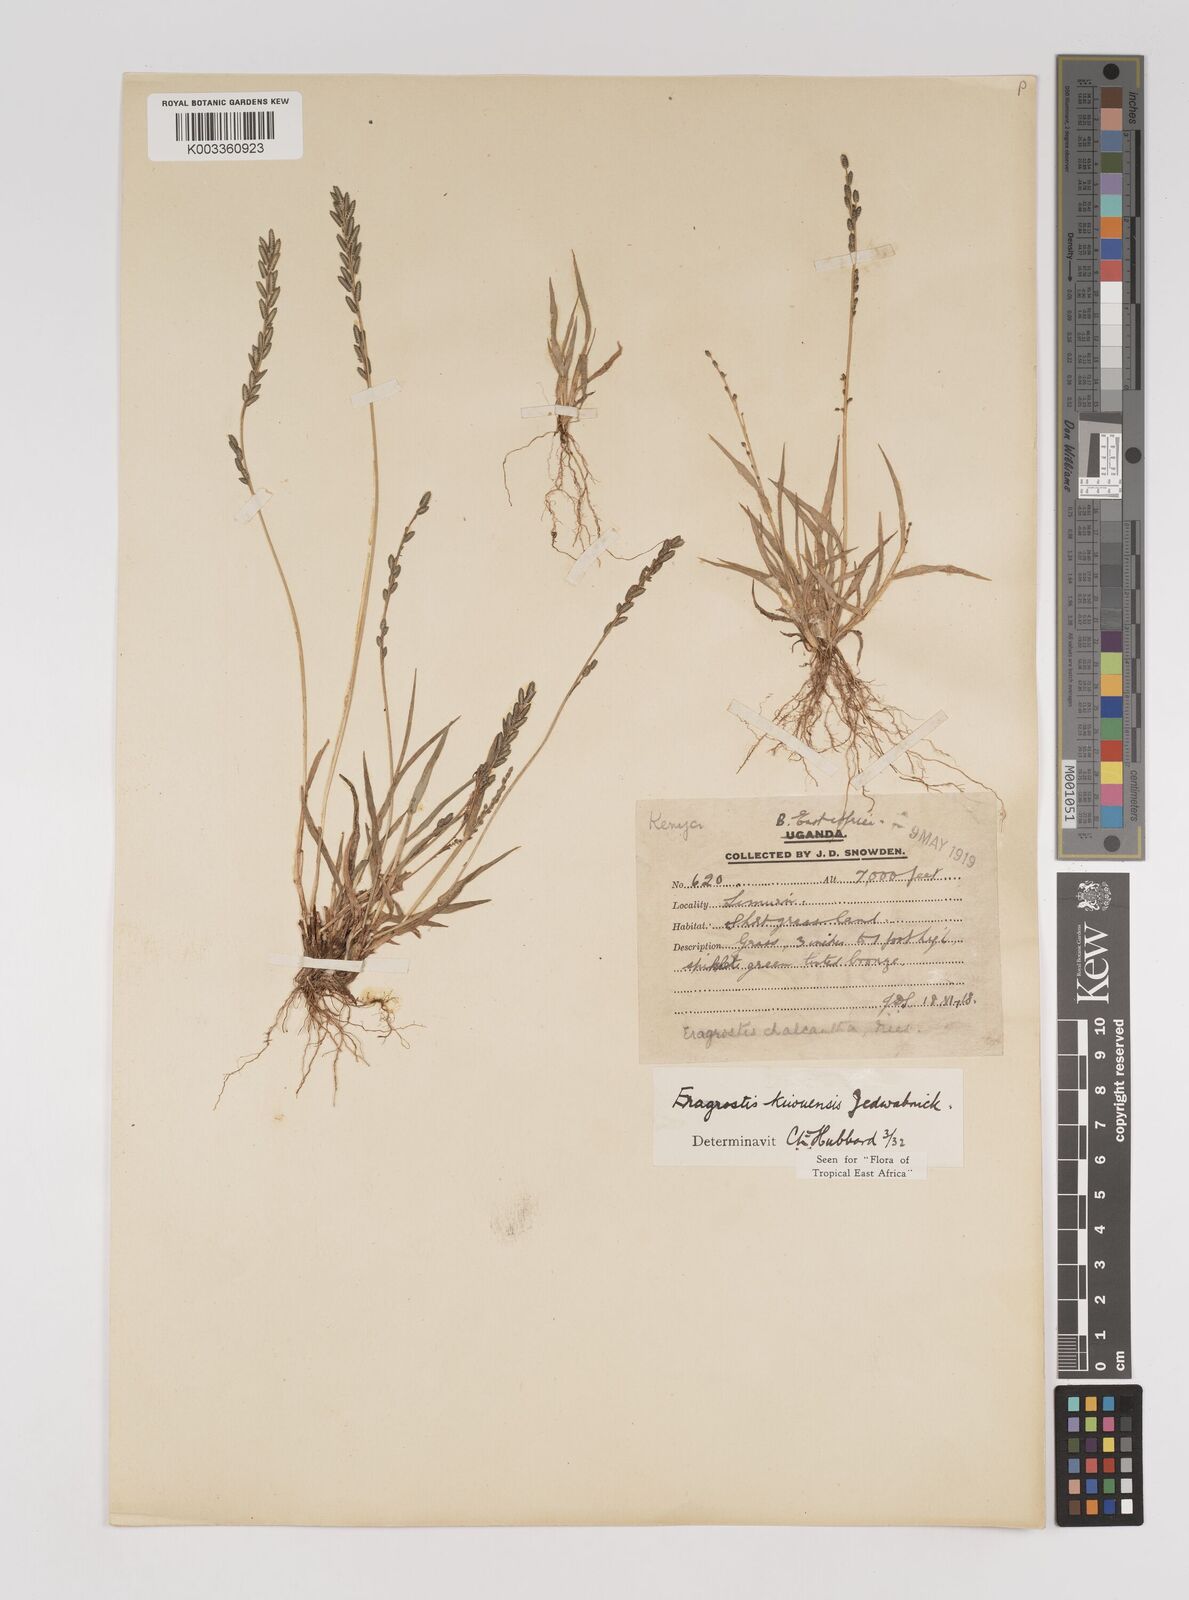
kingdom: Plantae
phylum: Tracheophyta
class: Liliopsida
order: Poales
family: Poaceae
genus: Eragrostis
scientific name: Eragrostis schweinfurthii
